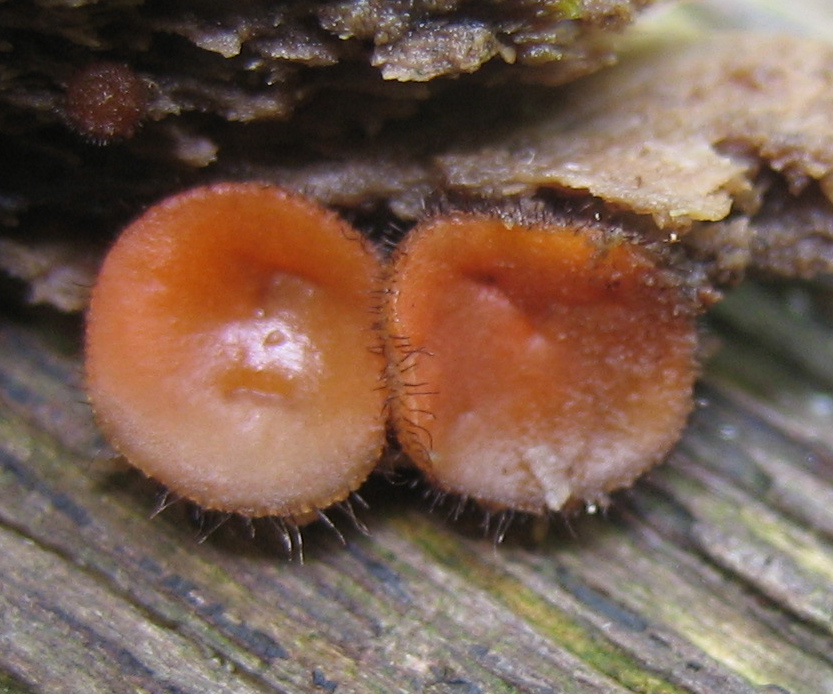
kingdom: Fungi
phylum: Ascomycota
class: Pezizomycetes
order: Pezizales
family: Pyronemataceae
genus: Scutellinia
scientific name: Scutellinia scutellata
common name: frynset skjoldbæger
